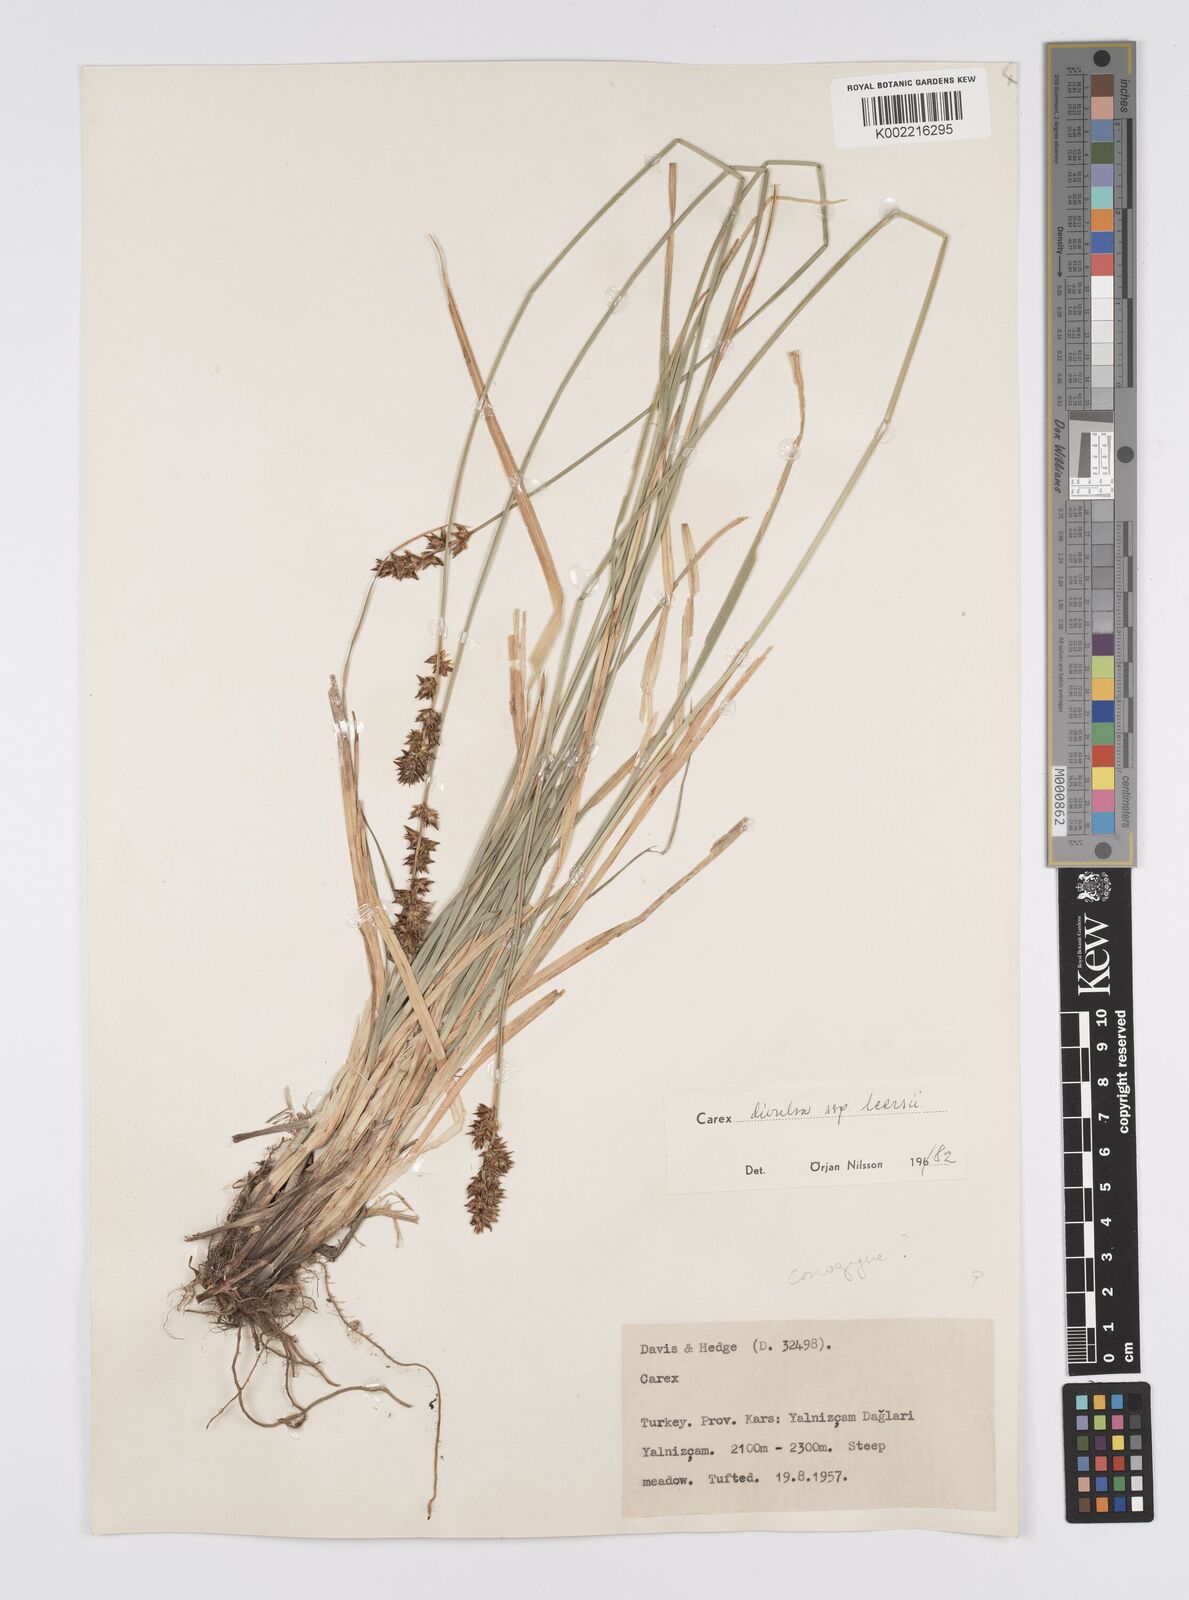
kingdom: Plantae
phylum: Tracheophyta
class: Liliopsida
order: Poales
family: Cyperaceae
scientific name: Cyperaceae
